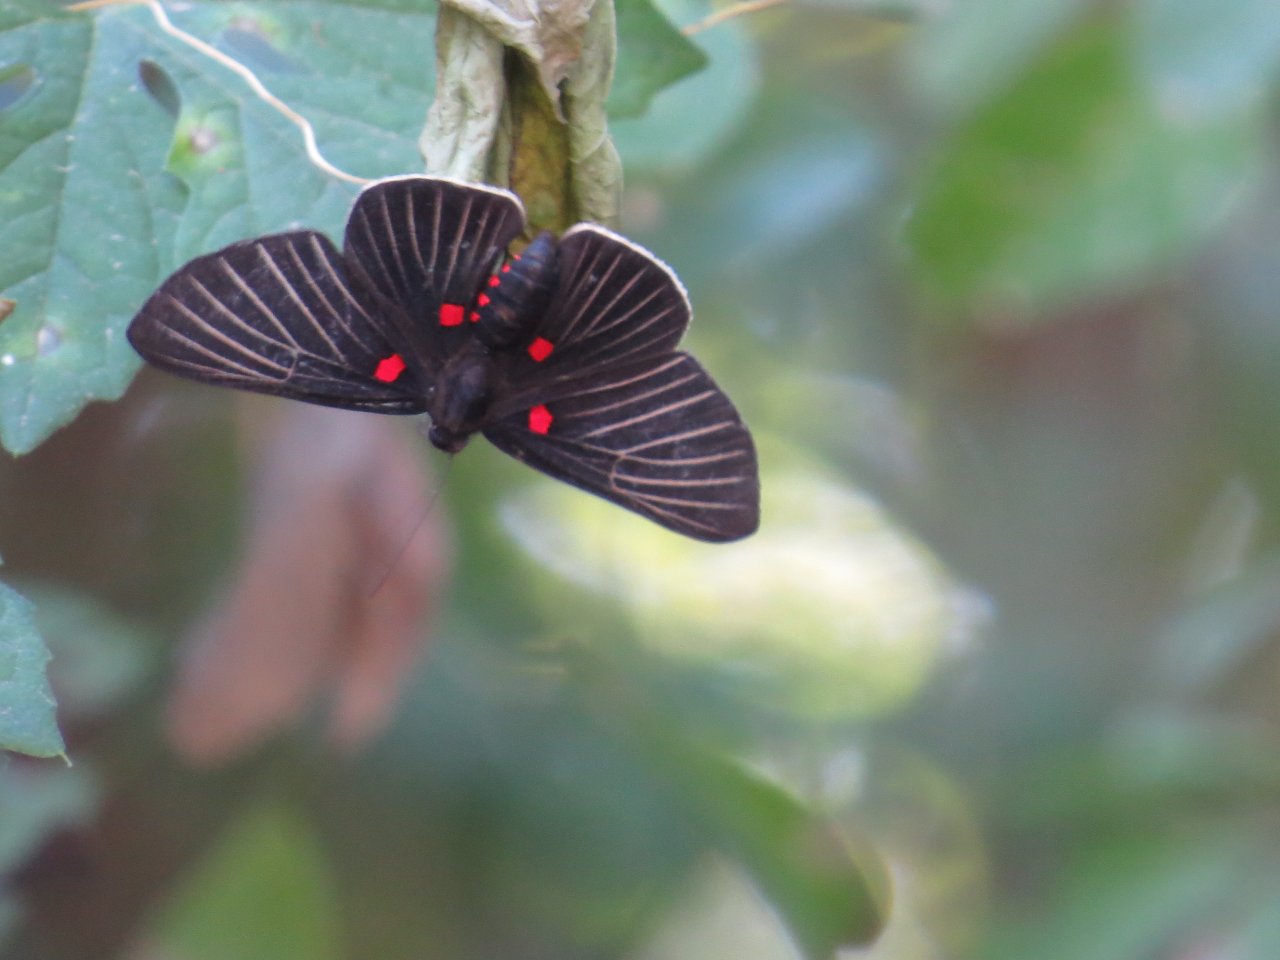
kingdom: Animalia
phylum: Arthropoda
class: Insecta
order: Lepidoptera
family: Lycaenidae
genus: Melanis
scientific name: Melanis
